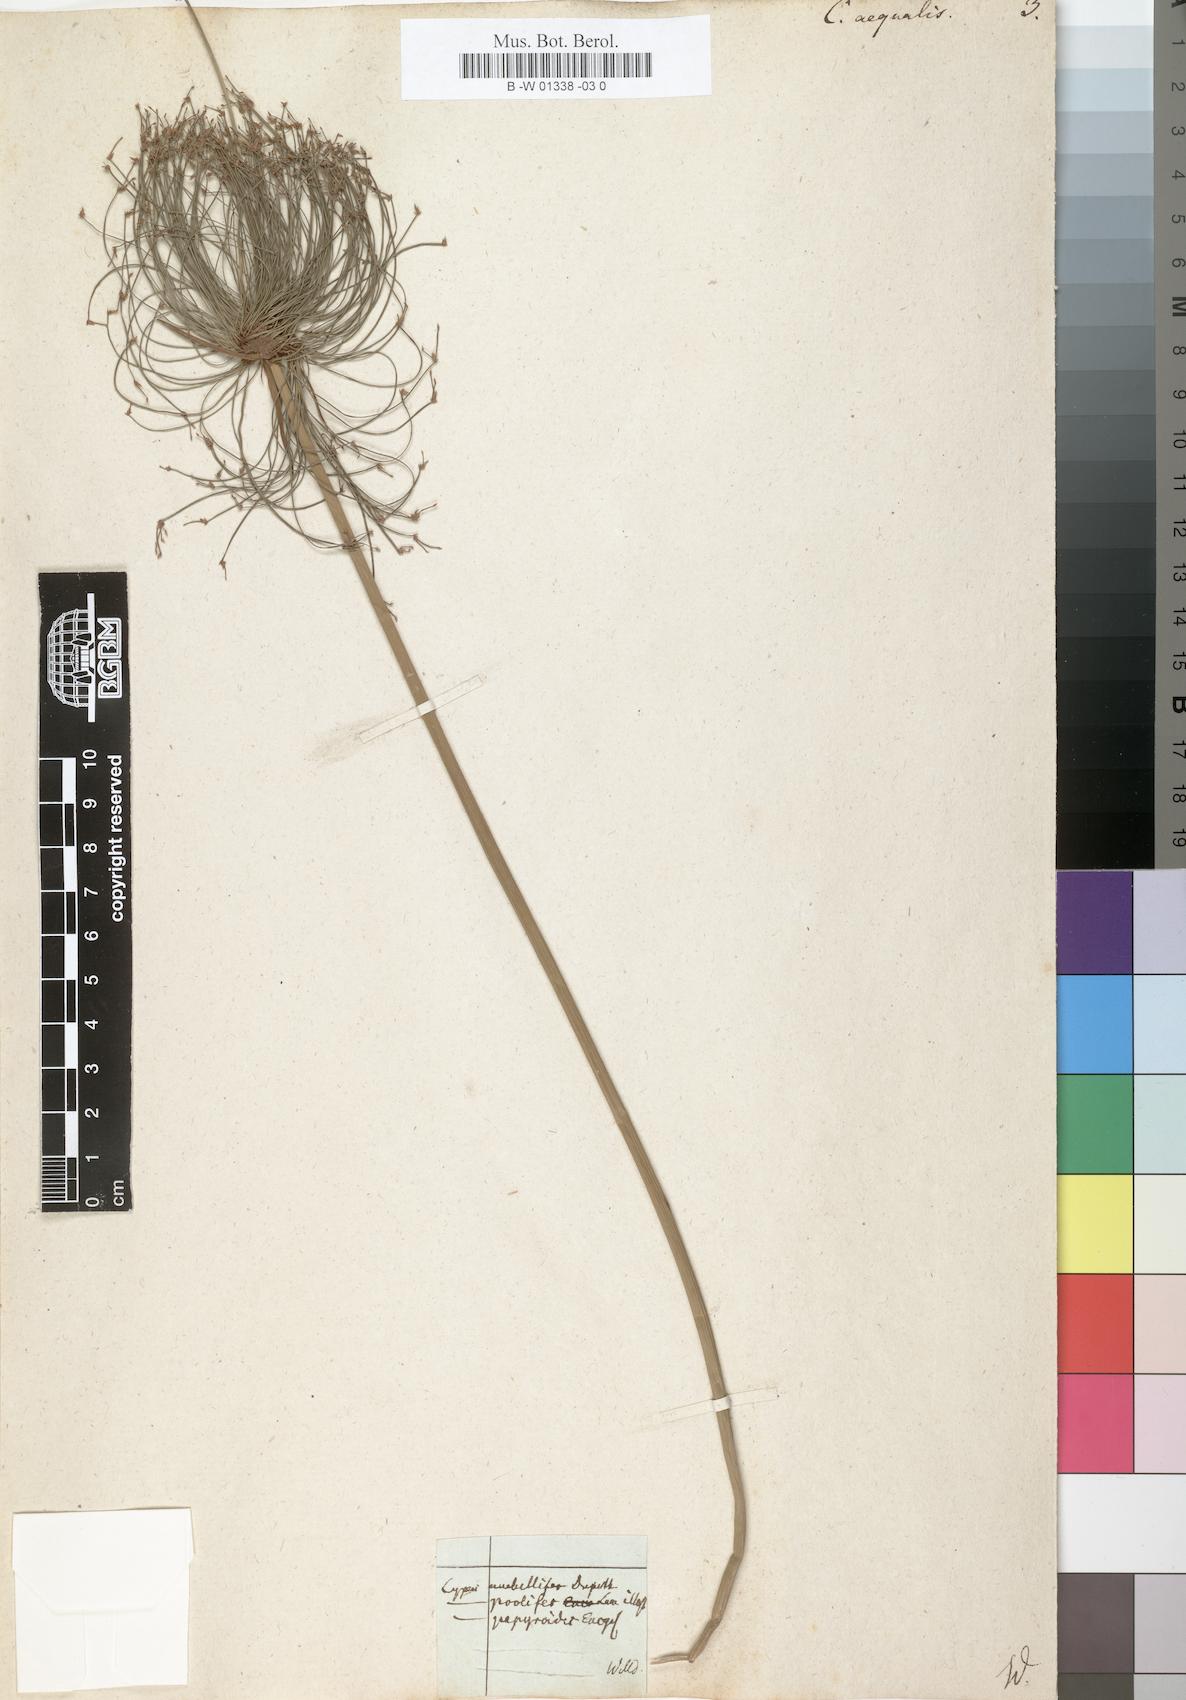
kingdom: Plantae
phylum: Tracheophyta
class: Liliopsida
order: Poales
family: Cyperaceae
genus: Cyperus
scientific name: Cyperus prolifer
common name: Miniature flatsedge
